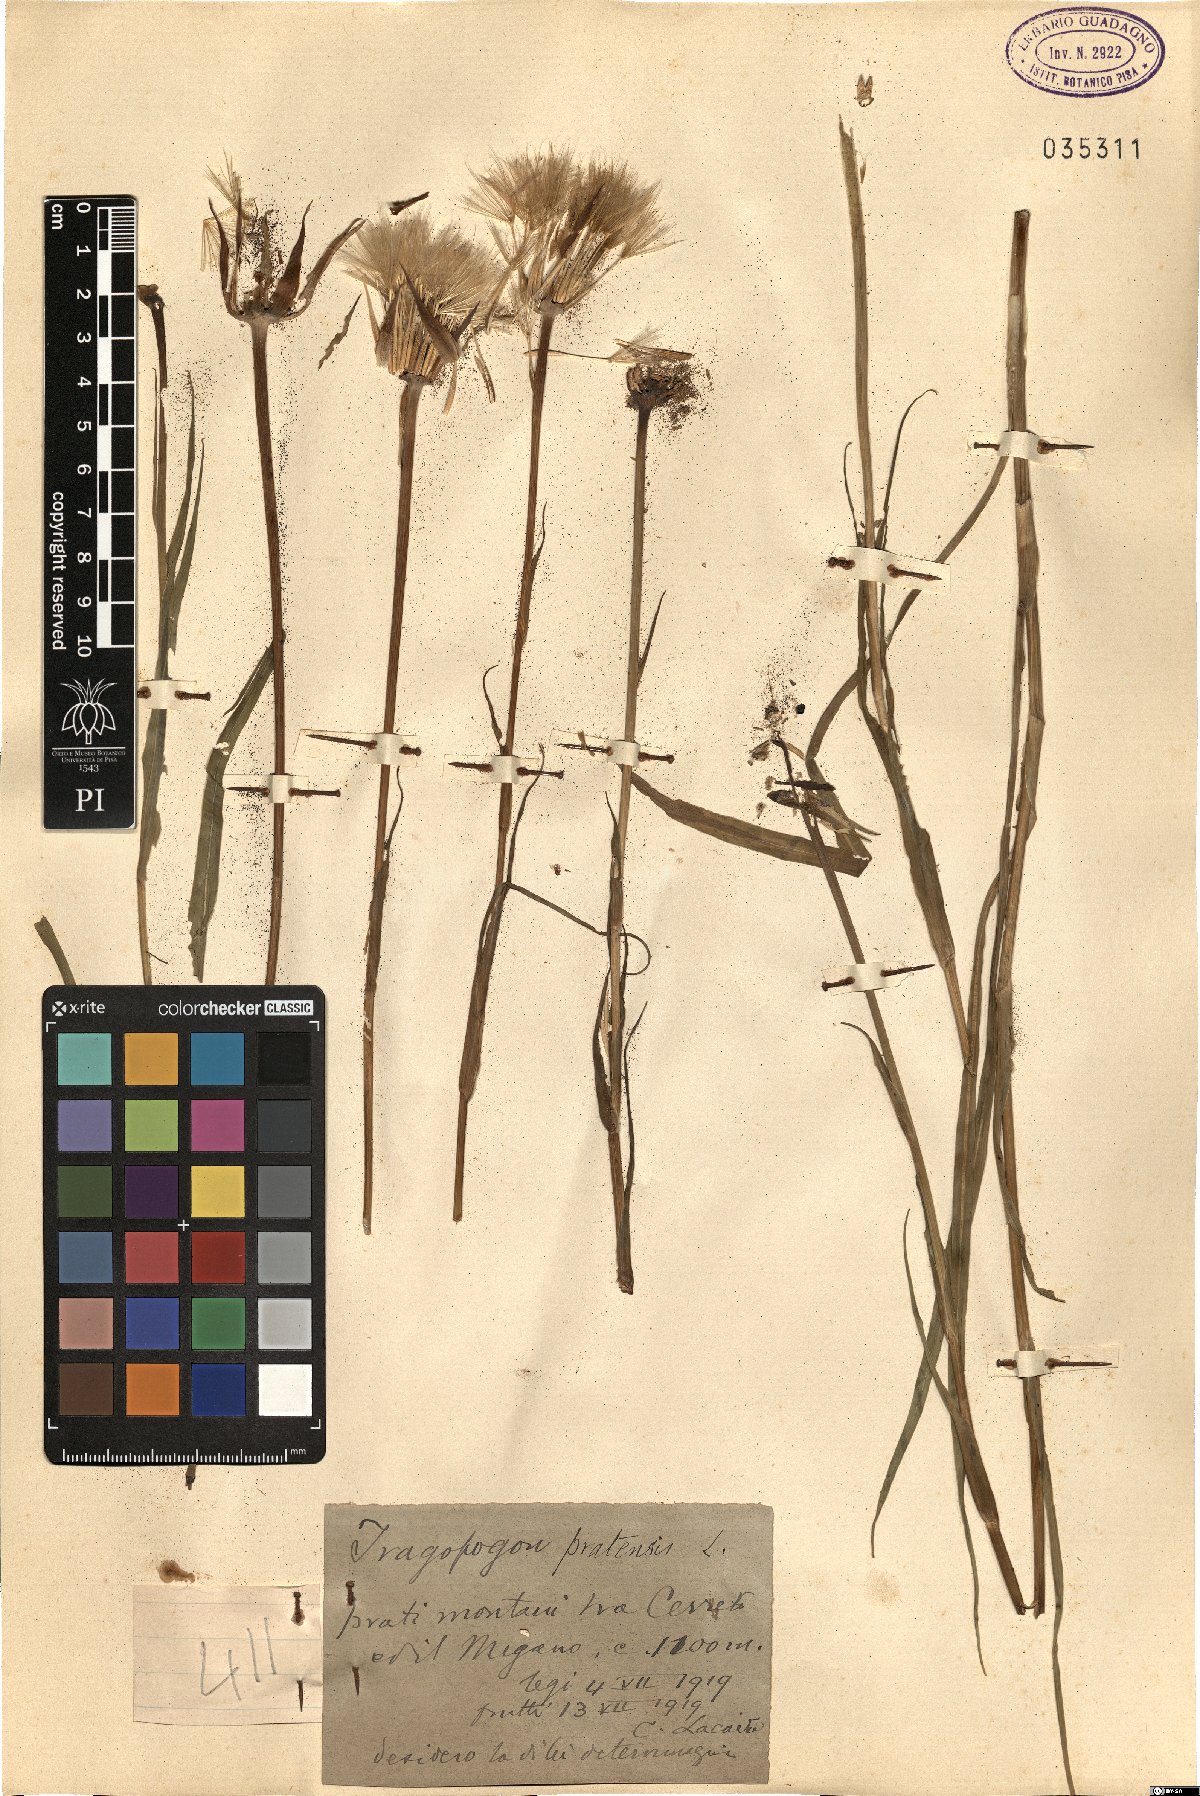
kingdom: Plantae
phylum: Tracheophyta
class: Magnoliopsida
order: Asterales
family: Asteraceae
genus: Tragopogon
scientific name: Tragopogon pratensis
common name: Goat's-beard
